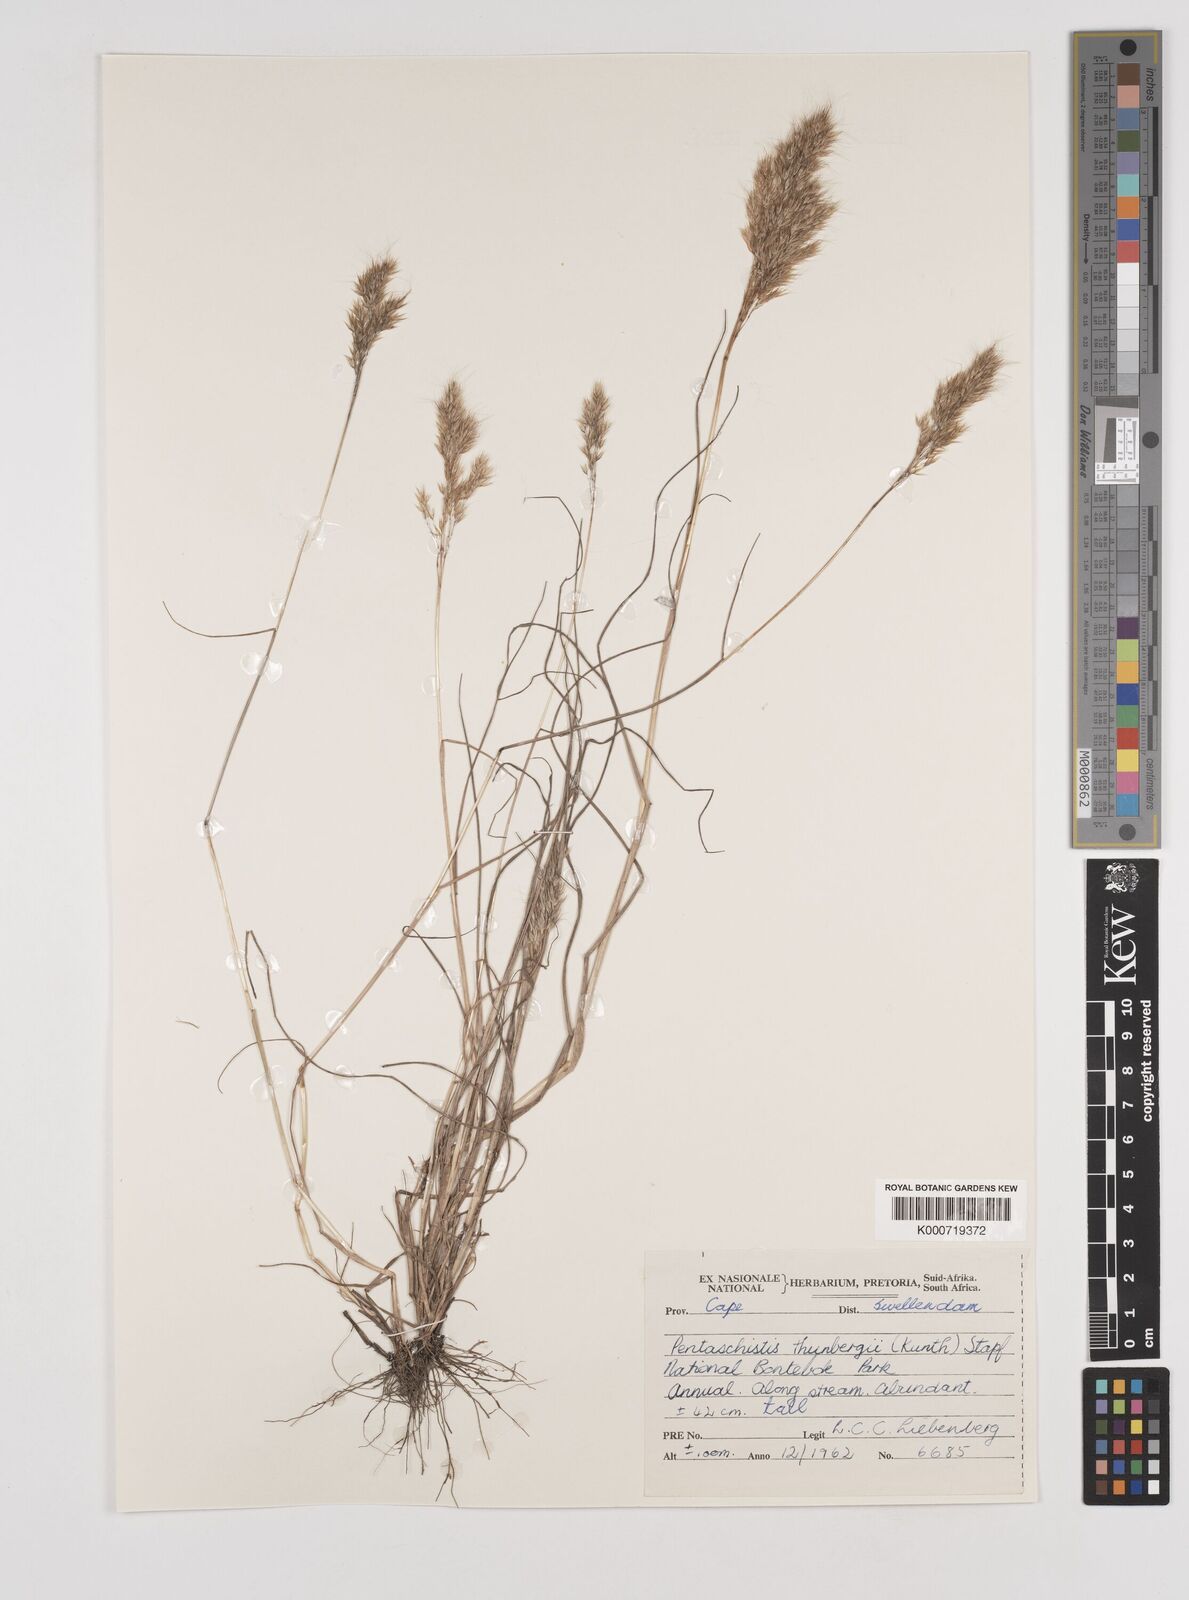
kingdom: Plantae
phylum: Tracheophyta
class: Liliopsida
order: Poales
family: Poaceae
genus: Pentameris
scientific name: Pentameris triseta
